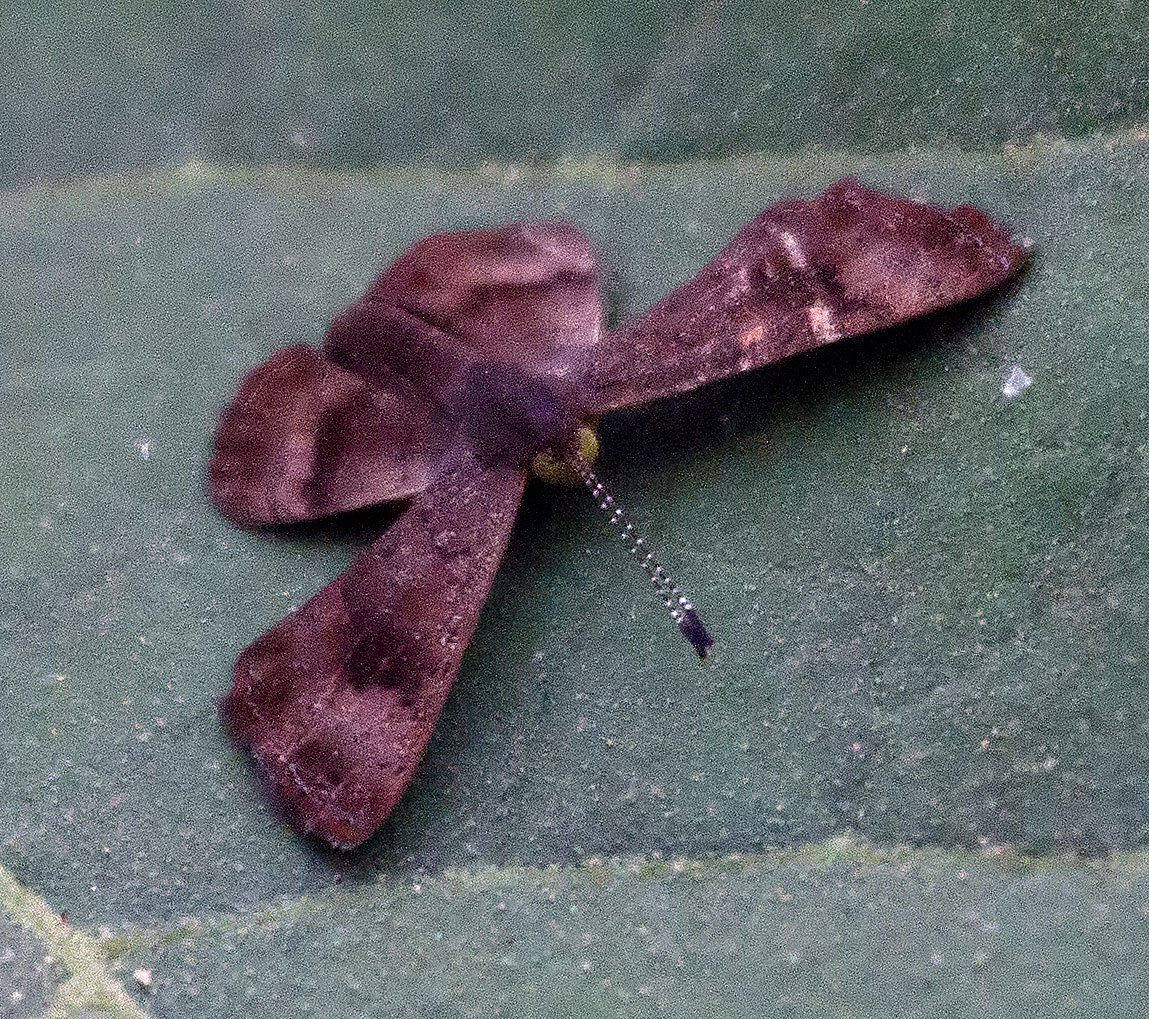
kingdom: Animalia
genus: Calephelis
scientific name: Calephelis nemesis
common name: Fatal Metalmark
